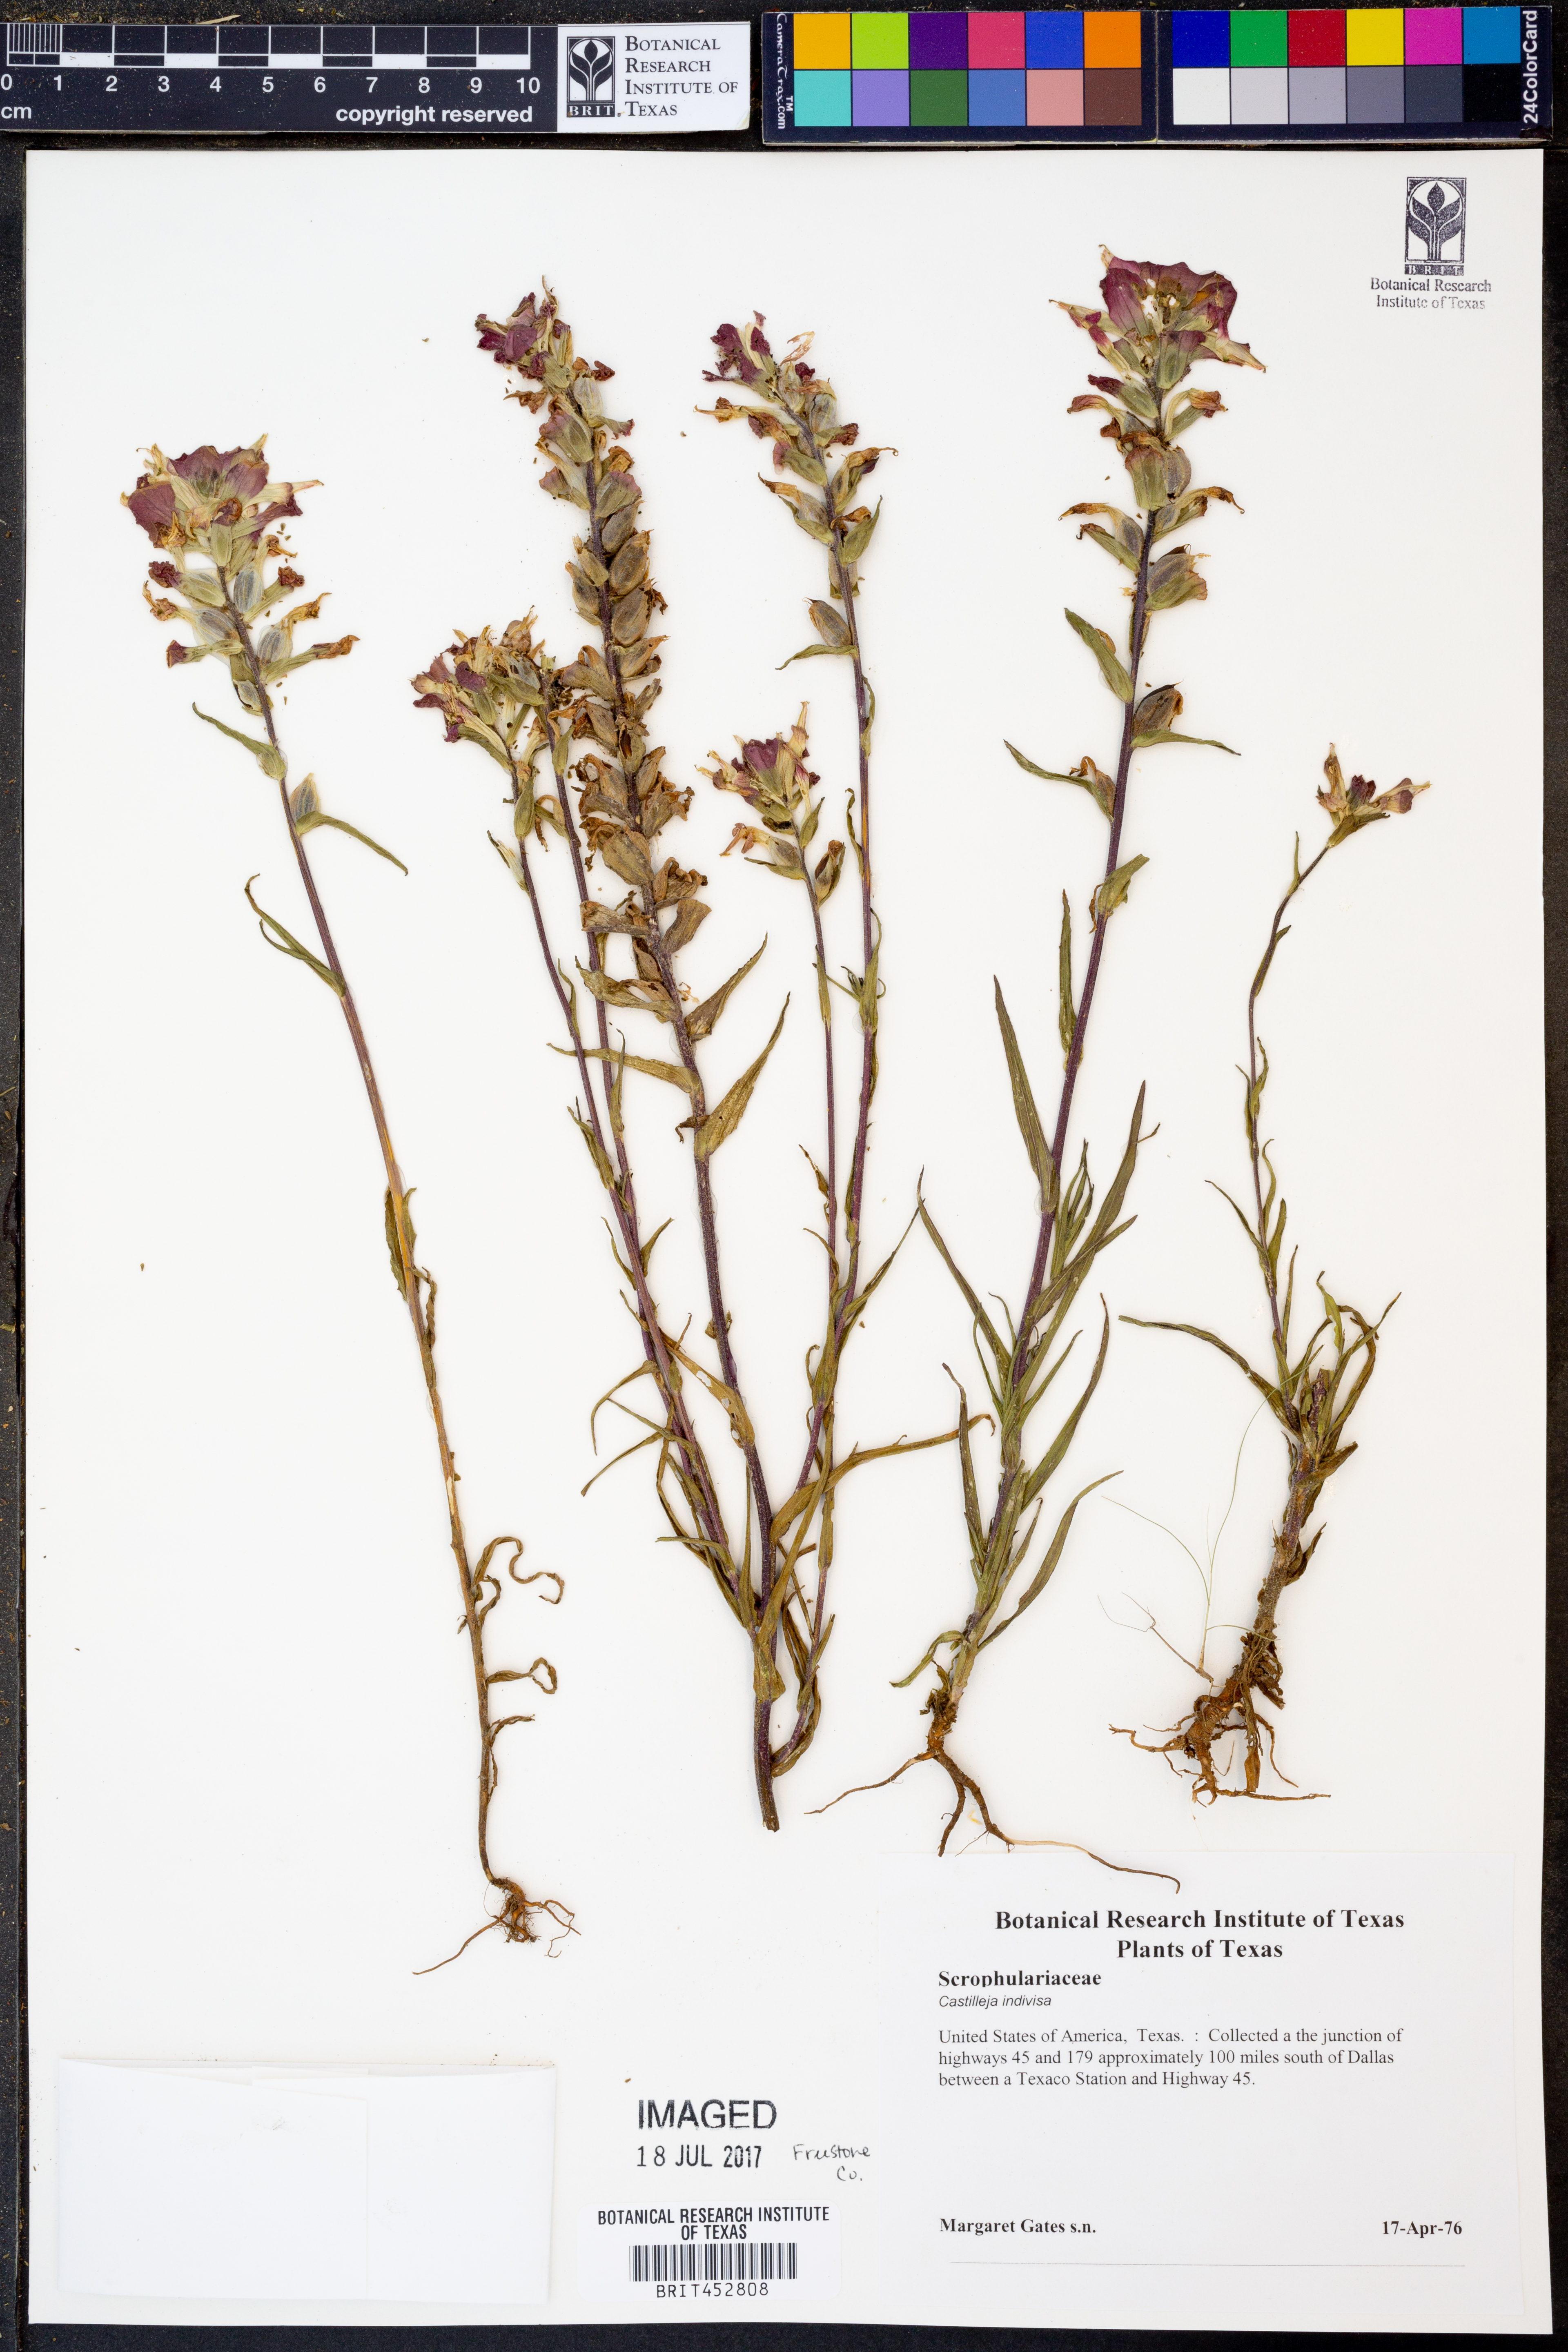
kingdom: Plantae
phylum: Tracheophyta
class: Magnoliopsida
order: Lamiales
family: Orobanchaceae
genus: Castilleja
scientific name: Castilleja indivisa
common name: Texas paintbrush
